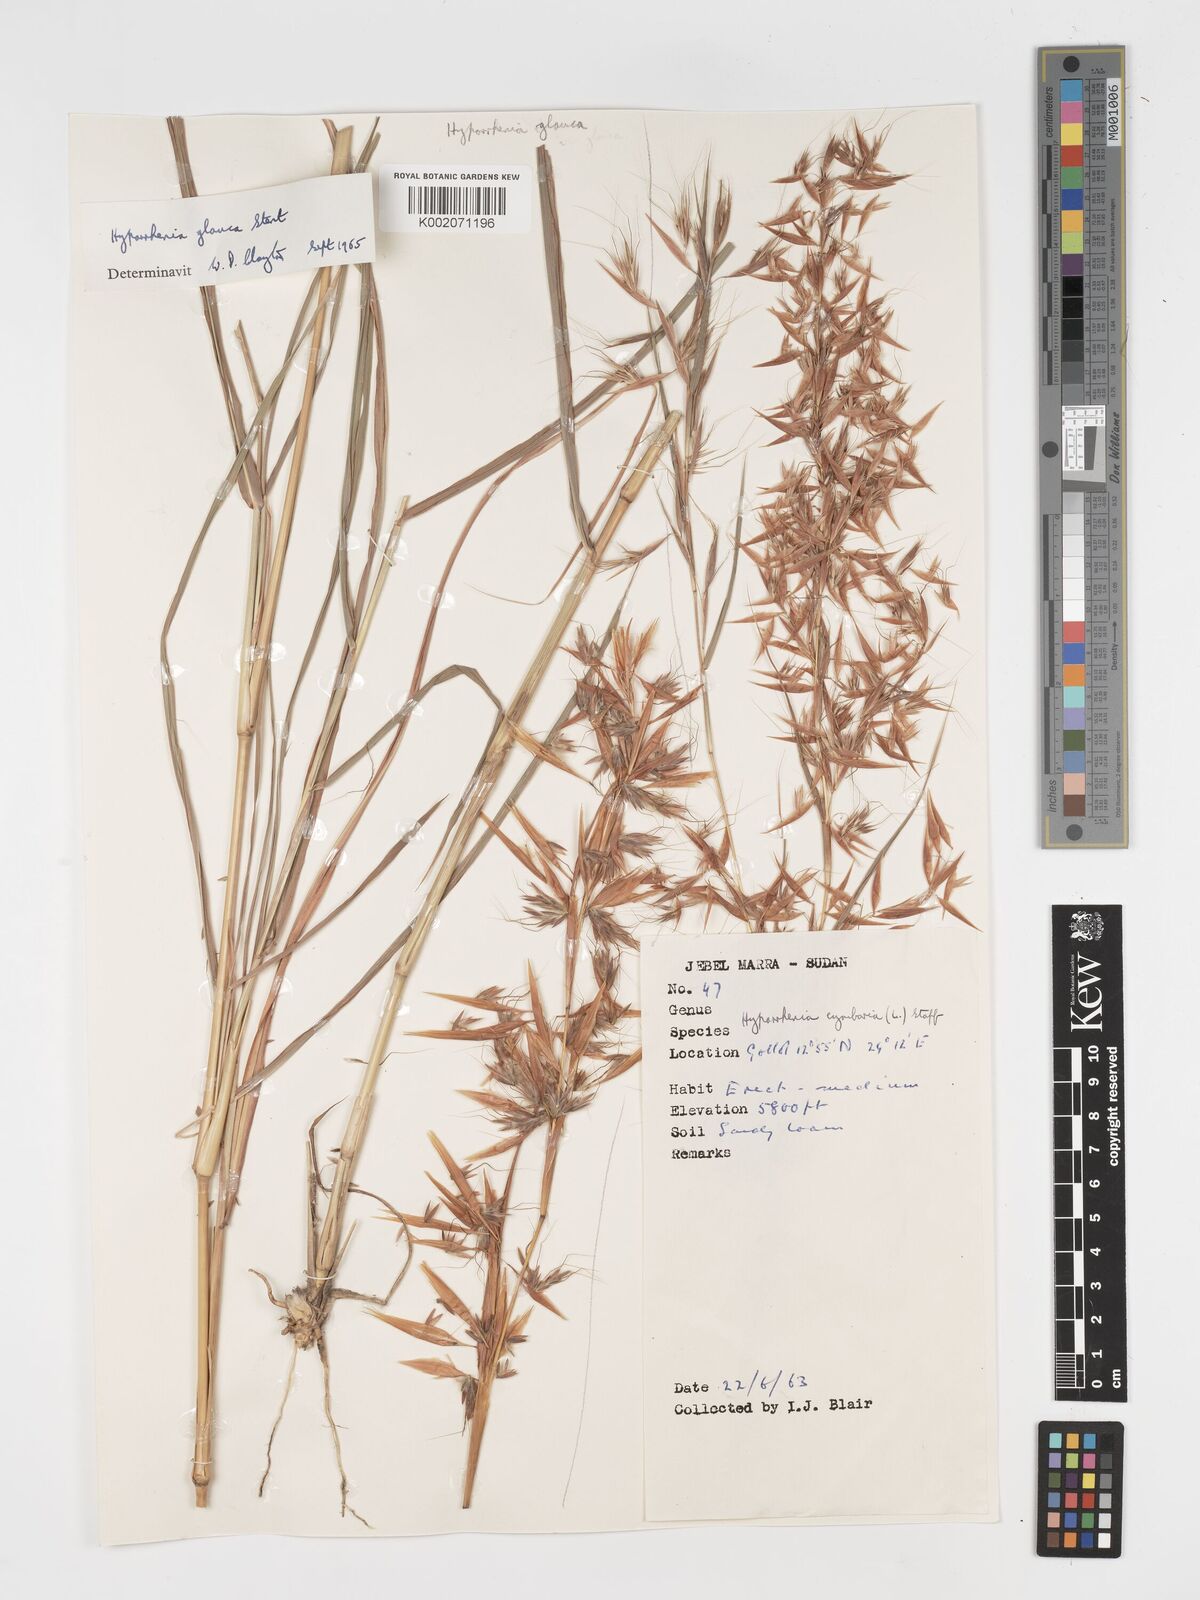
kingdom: Plantae
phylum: Tracheophyta
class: Liliopsida
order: Poales
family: Poaceae
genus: Hyparrhenia
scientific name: Hyparrhenia cymbaria
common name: Boat thatching grass
